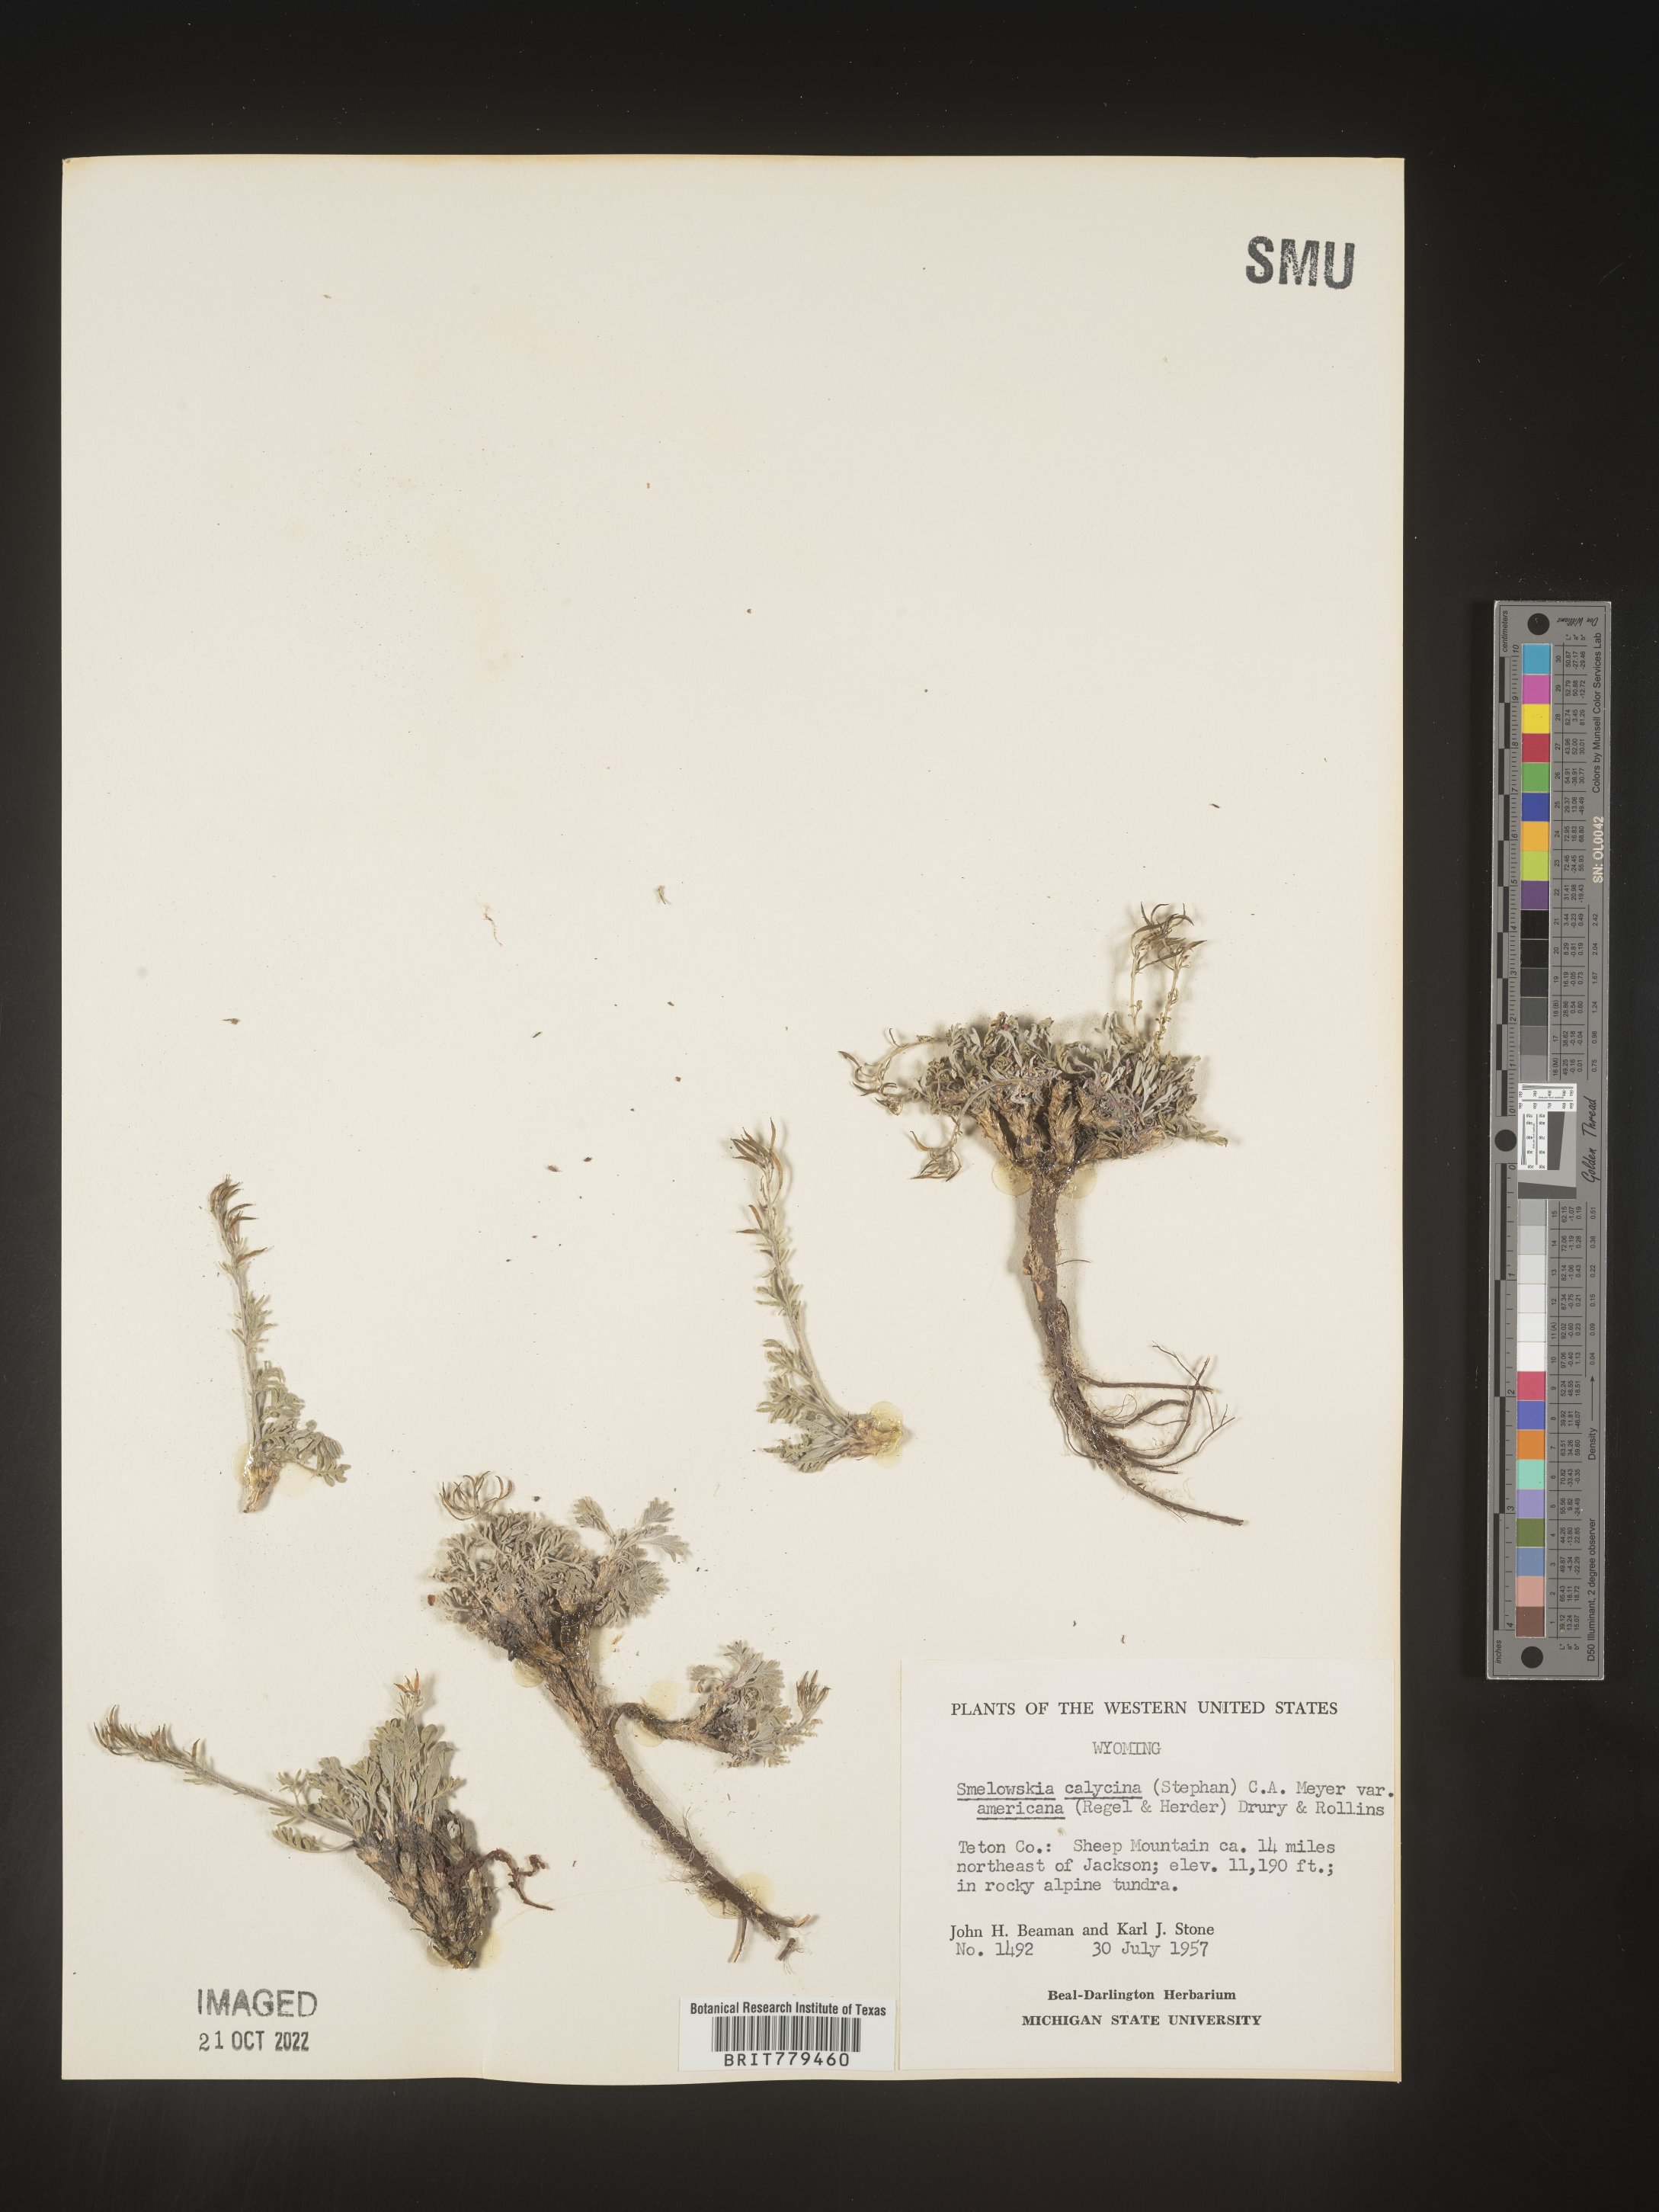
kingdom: Plantae
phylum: Tracheophyta
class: Magnoliopsida
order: Brassicales
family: Brassicaceae
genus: Smelowskia
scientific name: Smelowskia
